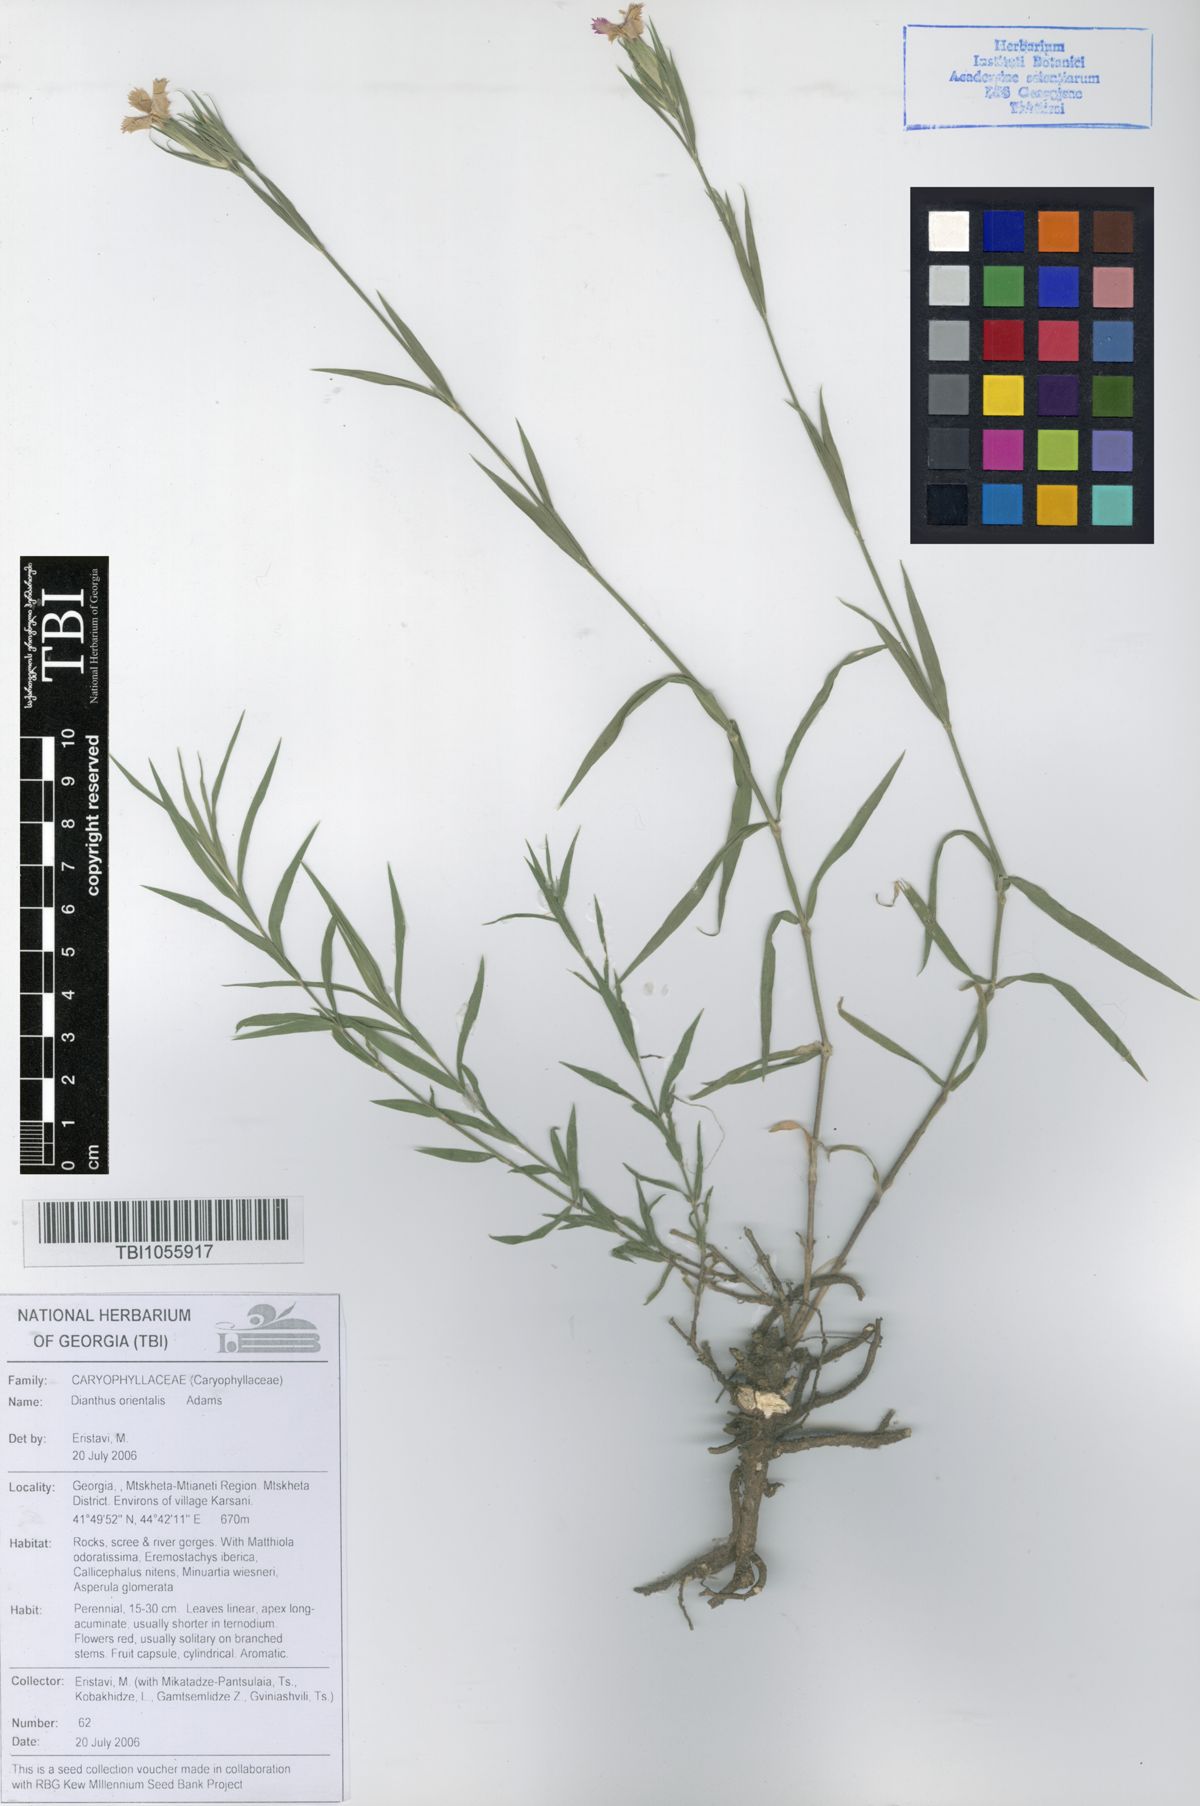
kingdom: Plantae
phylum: Tracheophyta
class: Magnoliopsida
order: Caryophyllales
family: Caryophyllaceae
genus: Dianthus
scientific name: Dianthus orientalis
